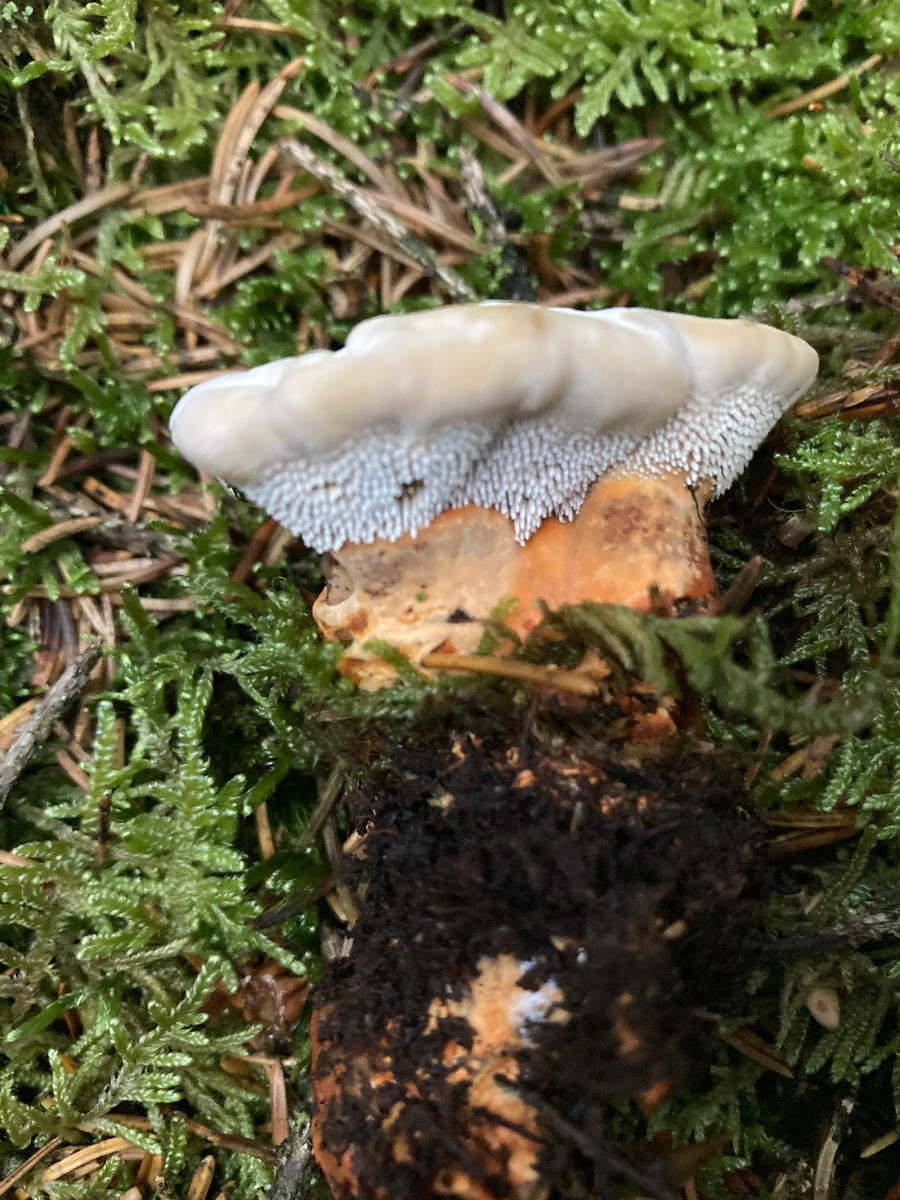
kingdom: Fungi
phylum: Basidiomycota
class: Agaricomycetes
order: Thelephorales
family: Bankeraceae
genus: Hydnellum
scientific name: Hydnellum aurantiacum
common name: orange korkpigsvamp
